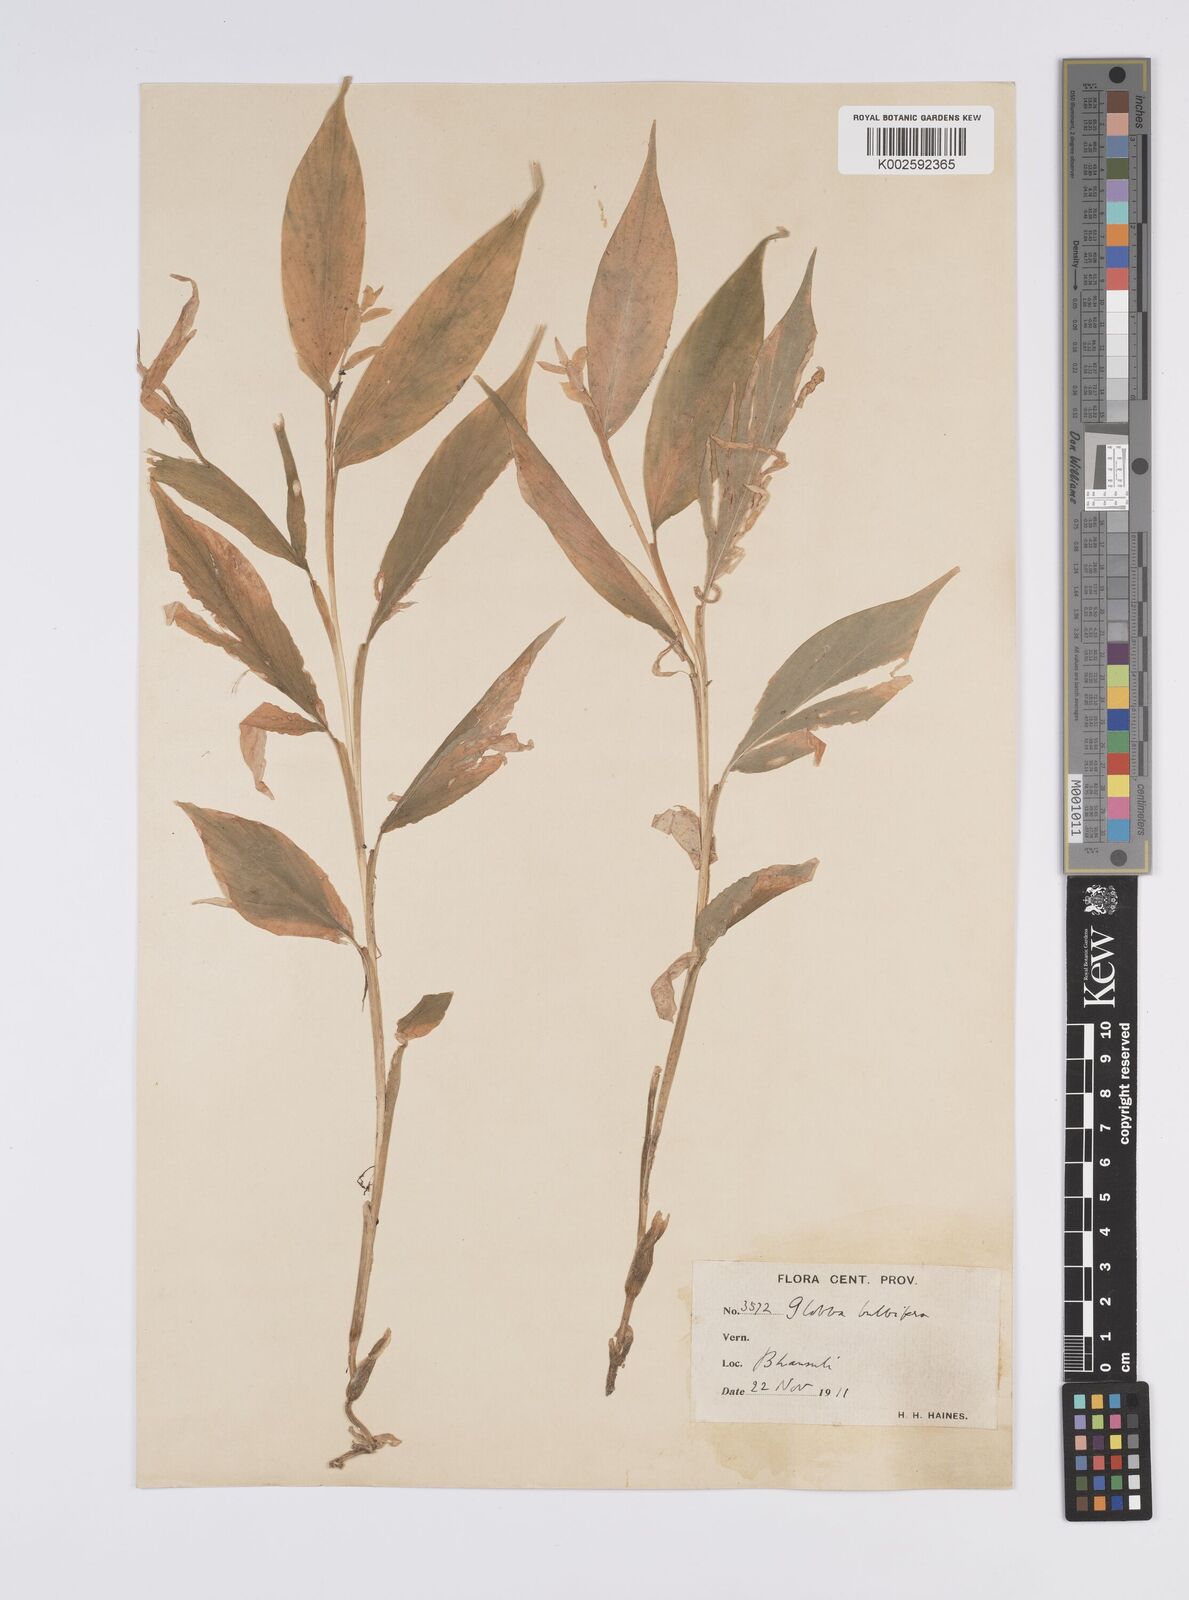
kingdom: Plantae
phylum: Tracheophyta
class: Liliopsida
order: Zingiberales
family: Zingiberaceae
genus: Globba
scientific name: Globba marantina
